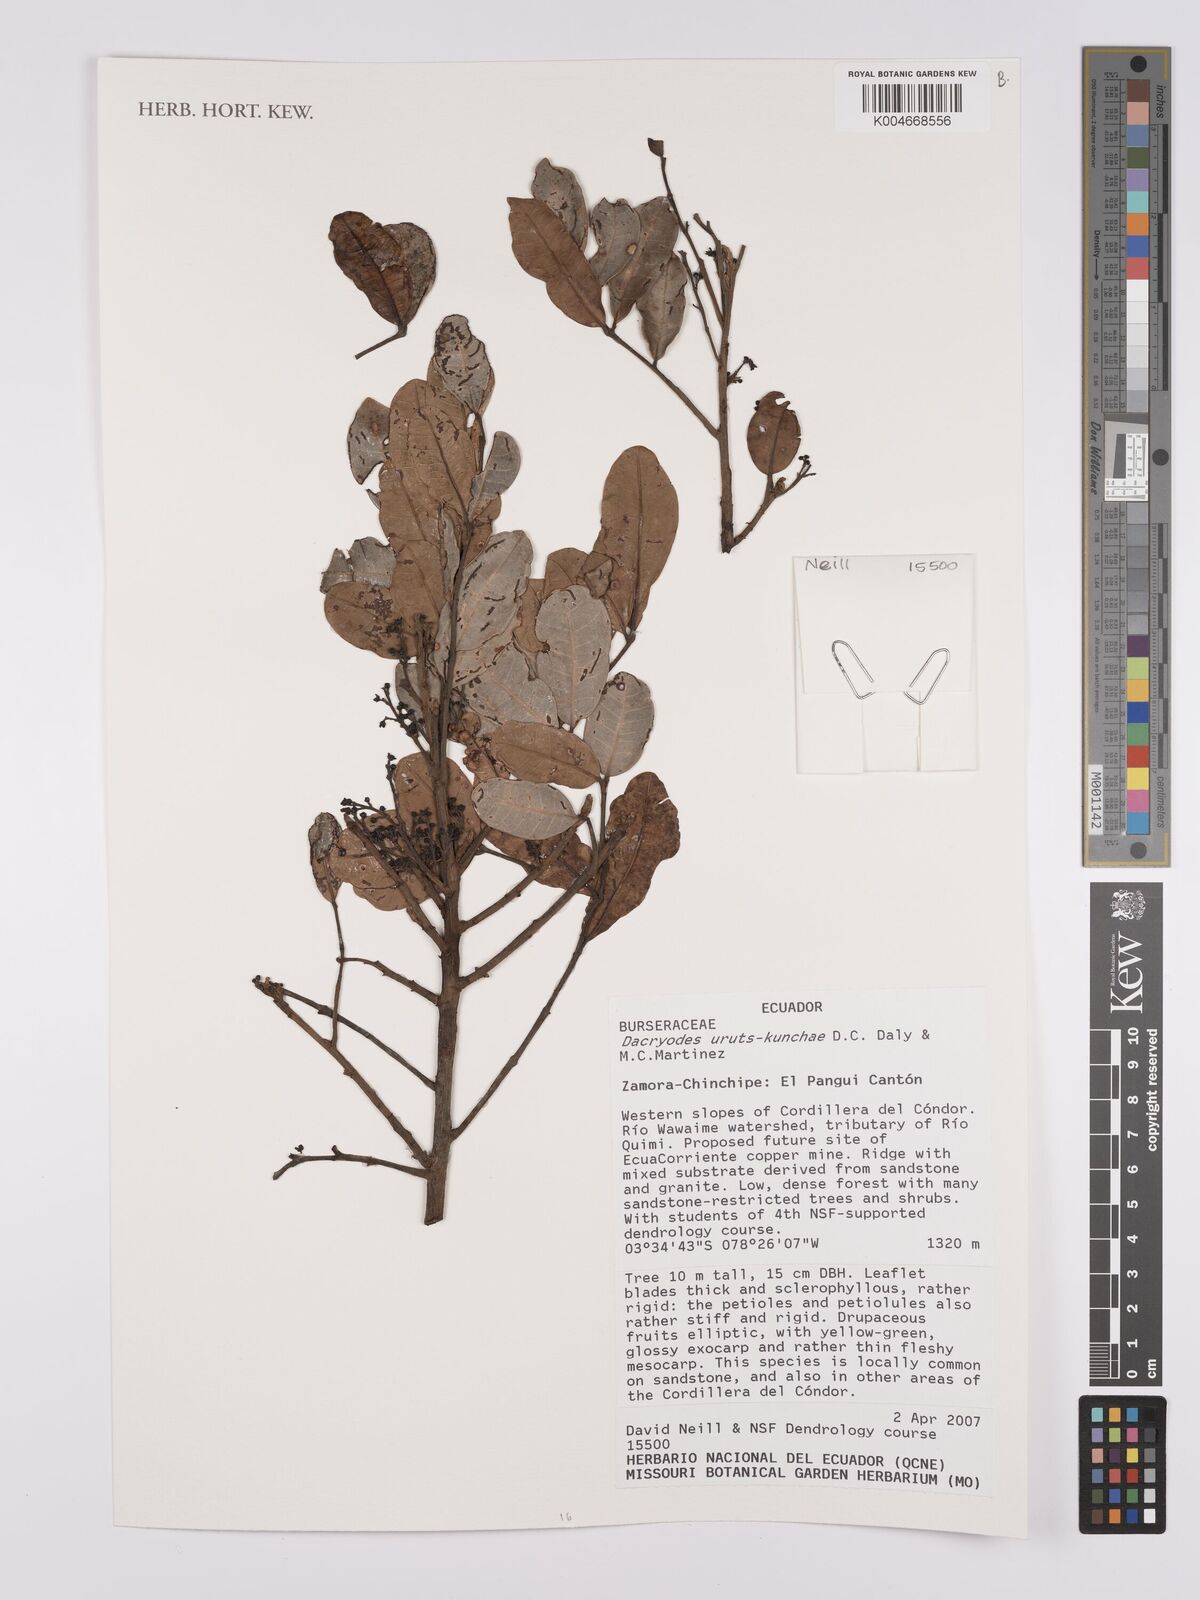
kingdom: Plantae
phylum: Tracheophyta
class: Magnoliopsida
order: Sapindales
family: Burseraceae
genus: Dacryodes
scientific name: Dacryodes uruts-kunchae
